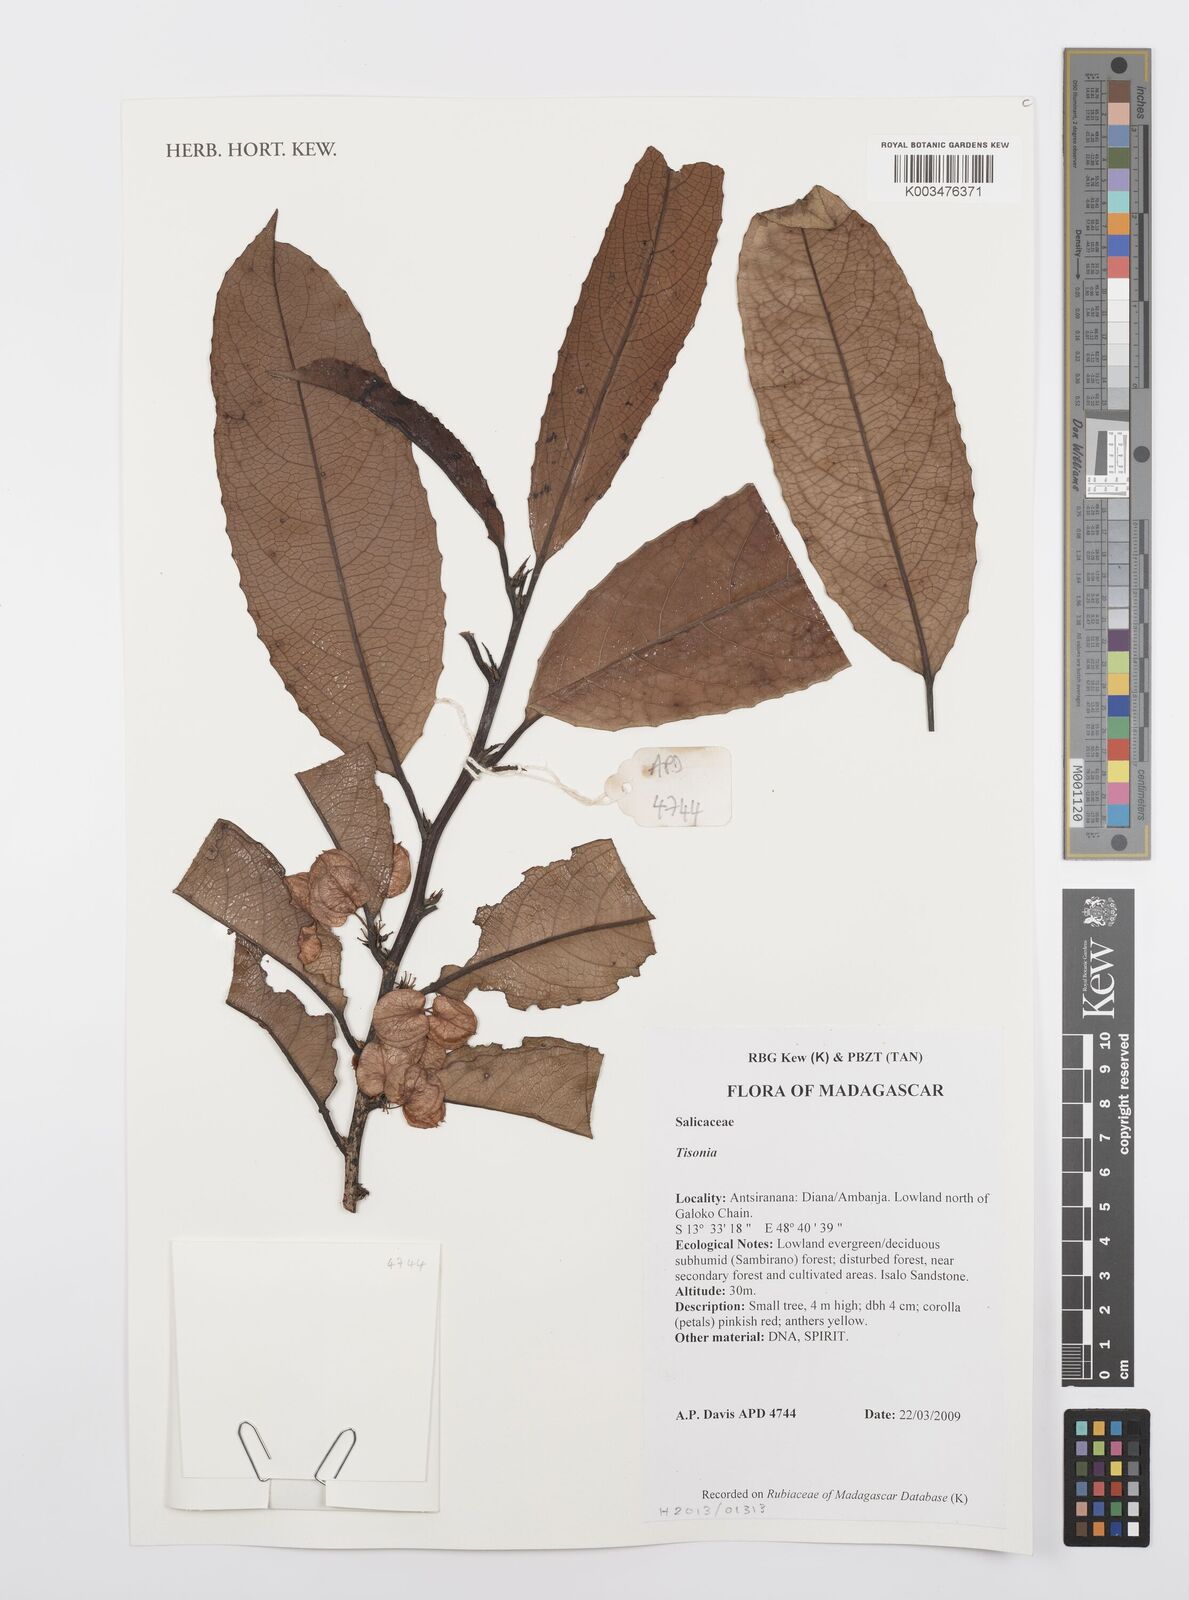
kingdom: Plantae
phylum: Tracheophyta
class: Magnoliopsida
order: Malpighiales
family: Salicaceae
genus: Tisonia
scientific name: Tisonia
